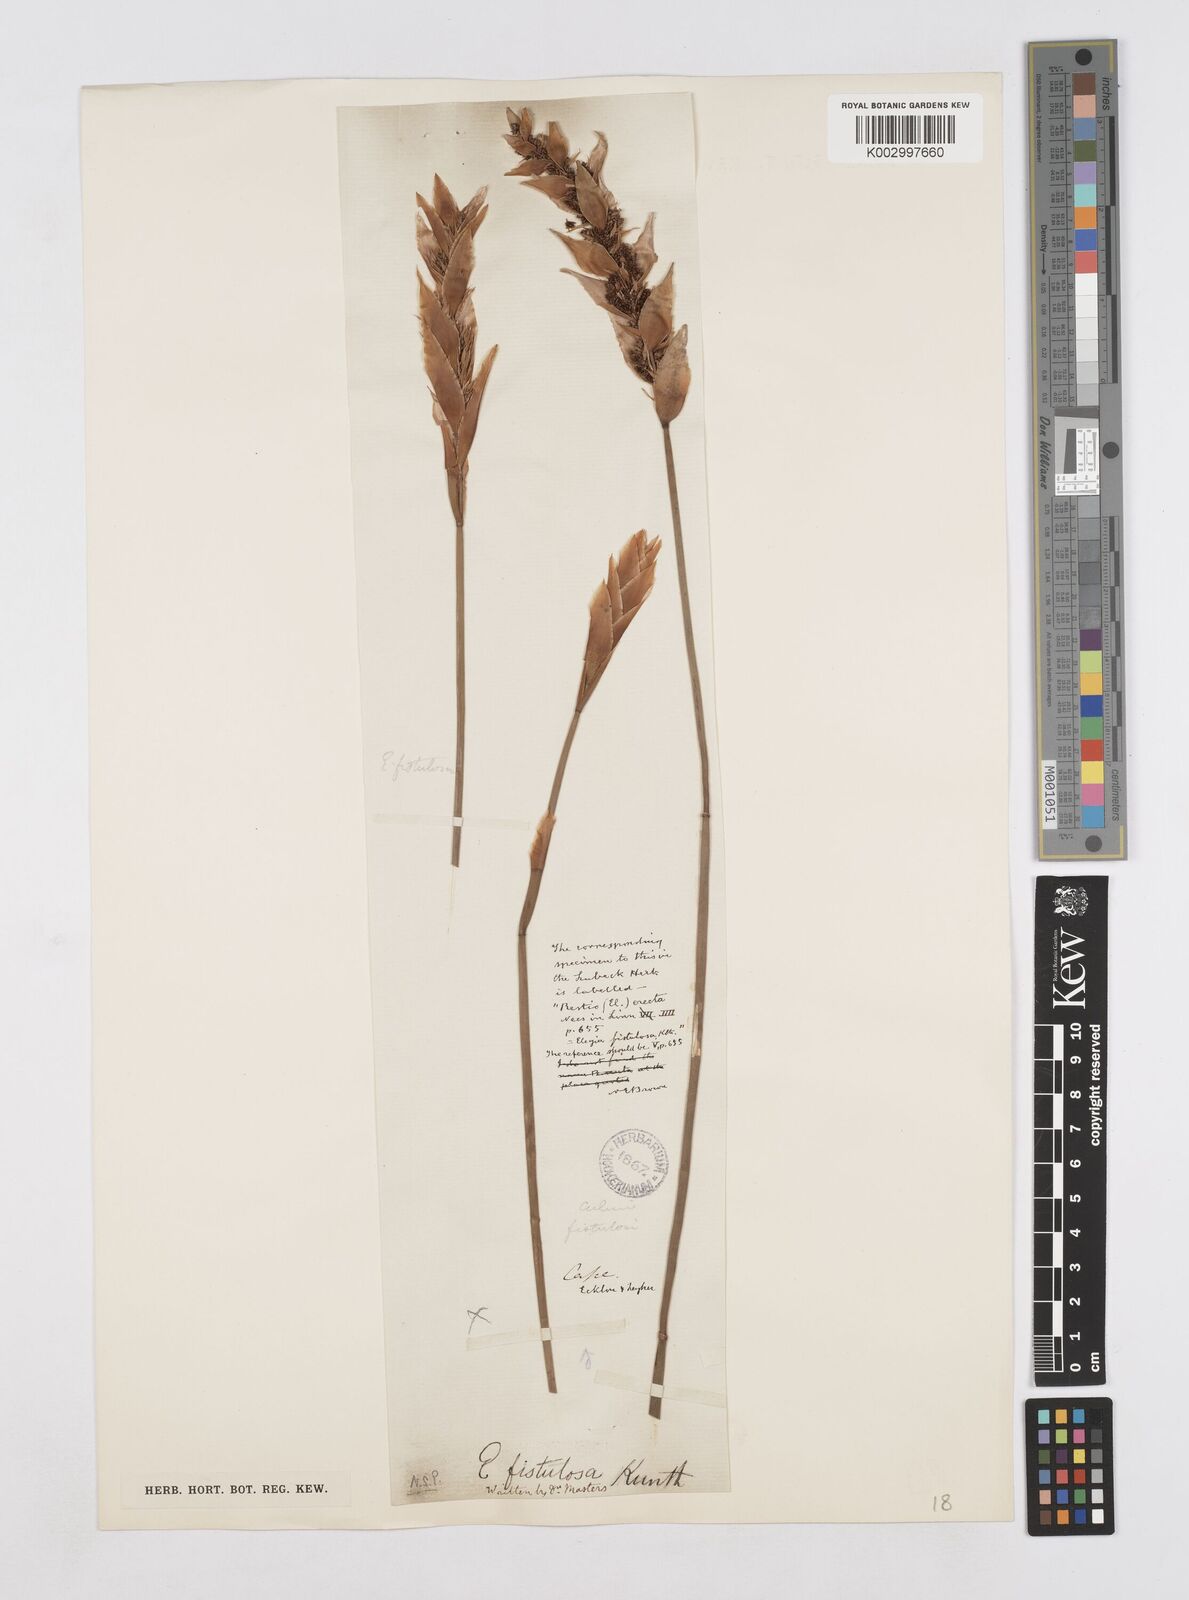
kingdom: Plantae
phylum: Tracheophyta
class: Liliopsida
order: Poales
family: Restionaceae
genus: Elegia
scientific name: Elegia fistulosa
